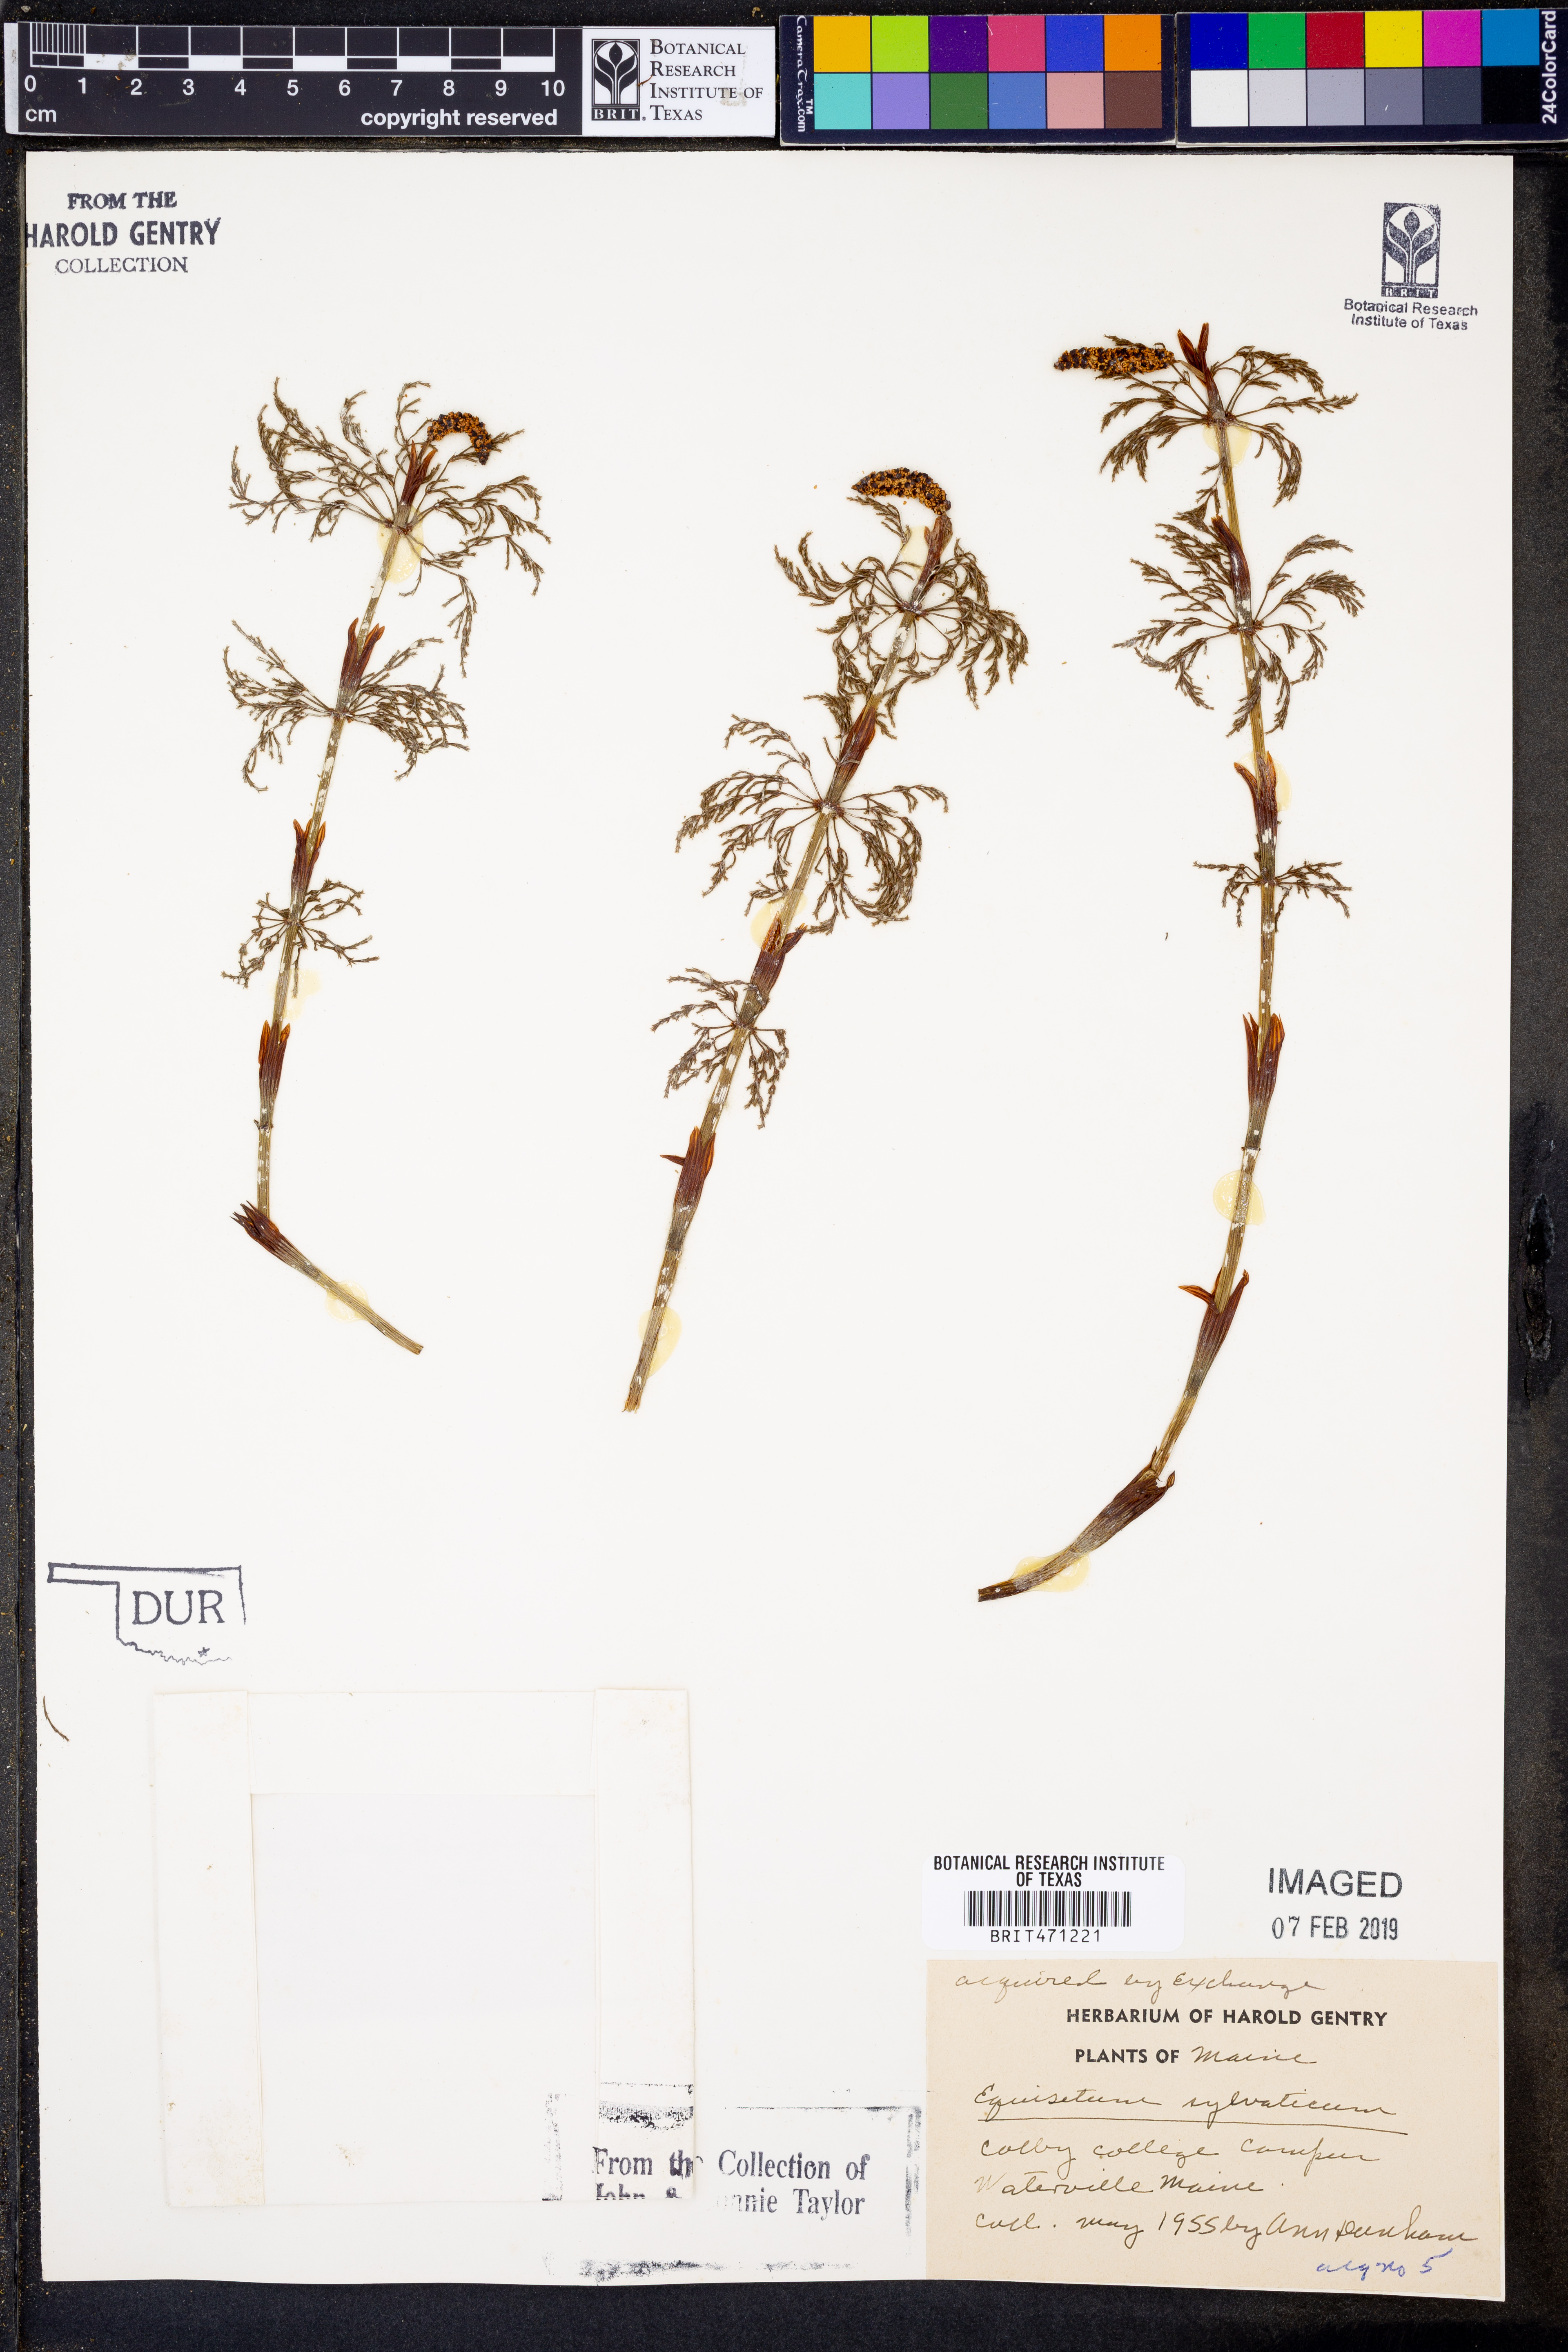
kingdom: Plantae
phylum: Tracheophyta
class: Polypodiopsida
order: Equisetales
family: Equisetaceae
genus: Equisetum
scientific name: Equisetum sylvaticum
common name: Wood horsetail
